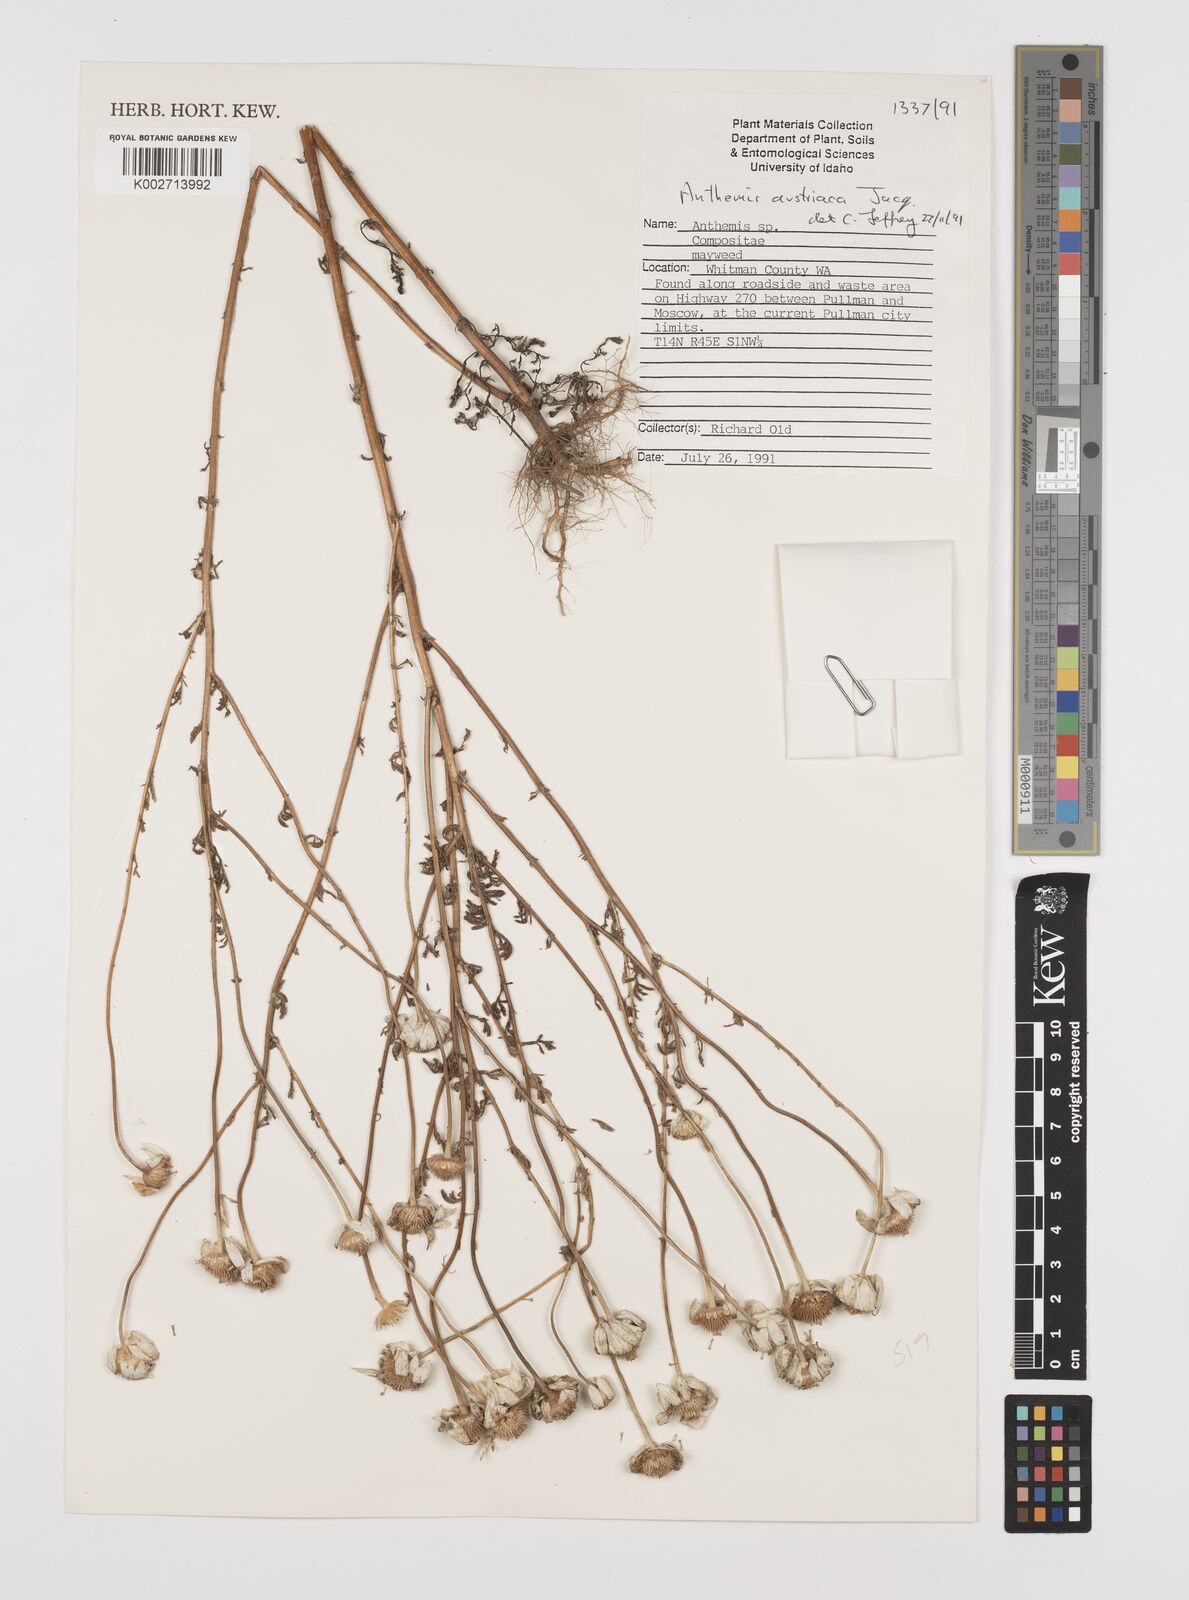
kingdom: Plantae
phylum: Tracheophyta
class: Magnoliopsida
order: Asterales
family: Asteraceae
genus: Cota
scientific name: Cota austriaca
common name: Austrian chamomile
